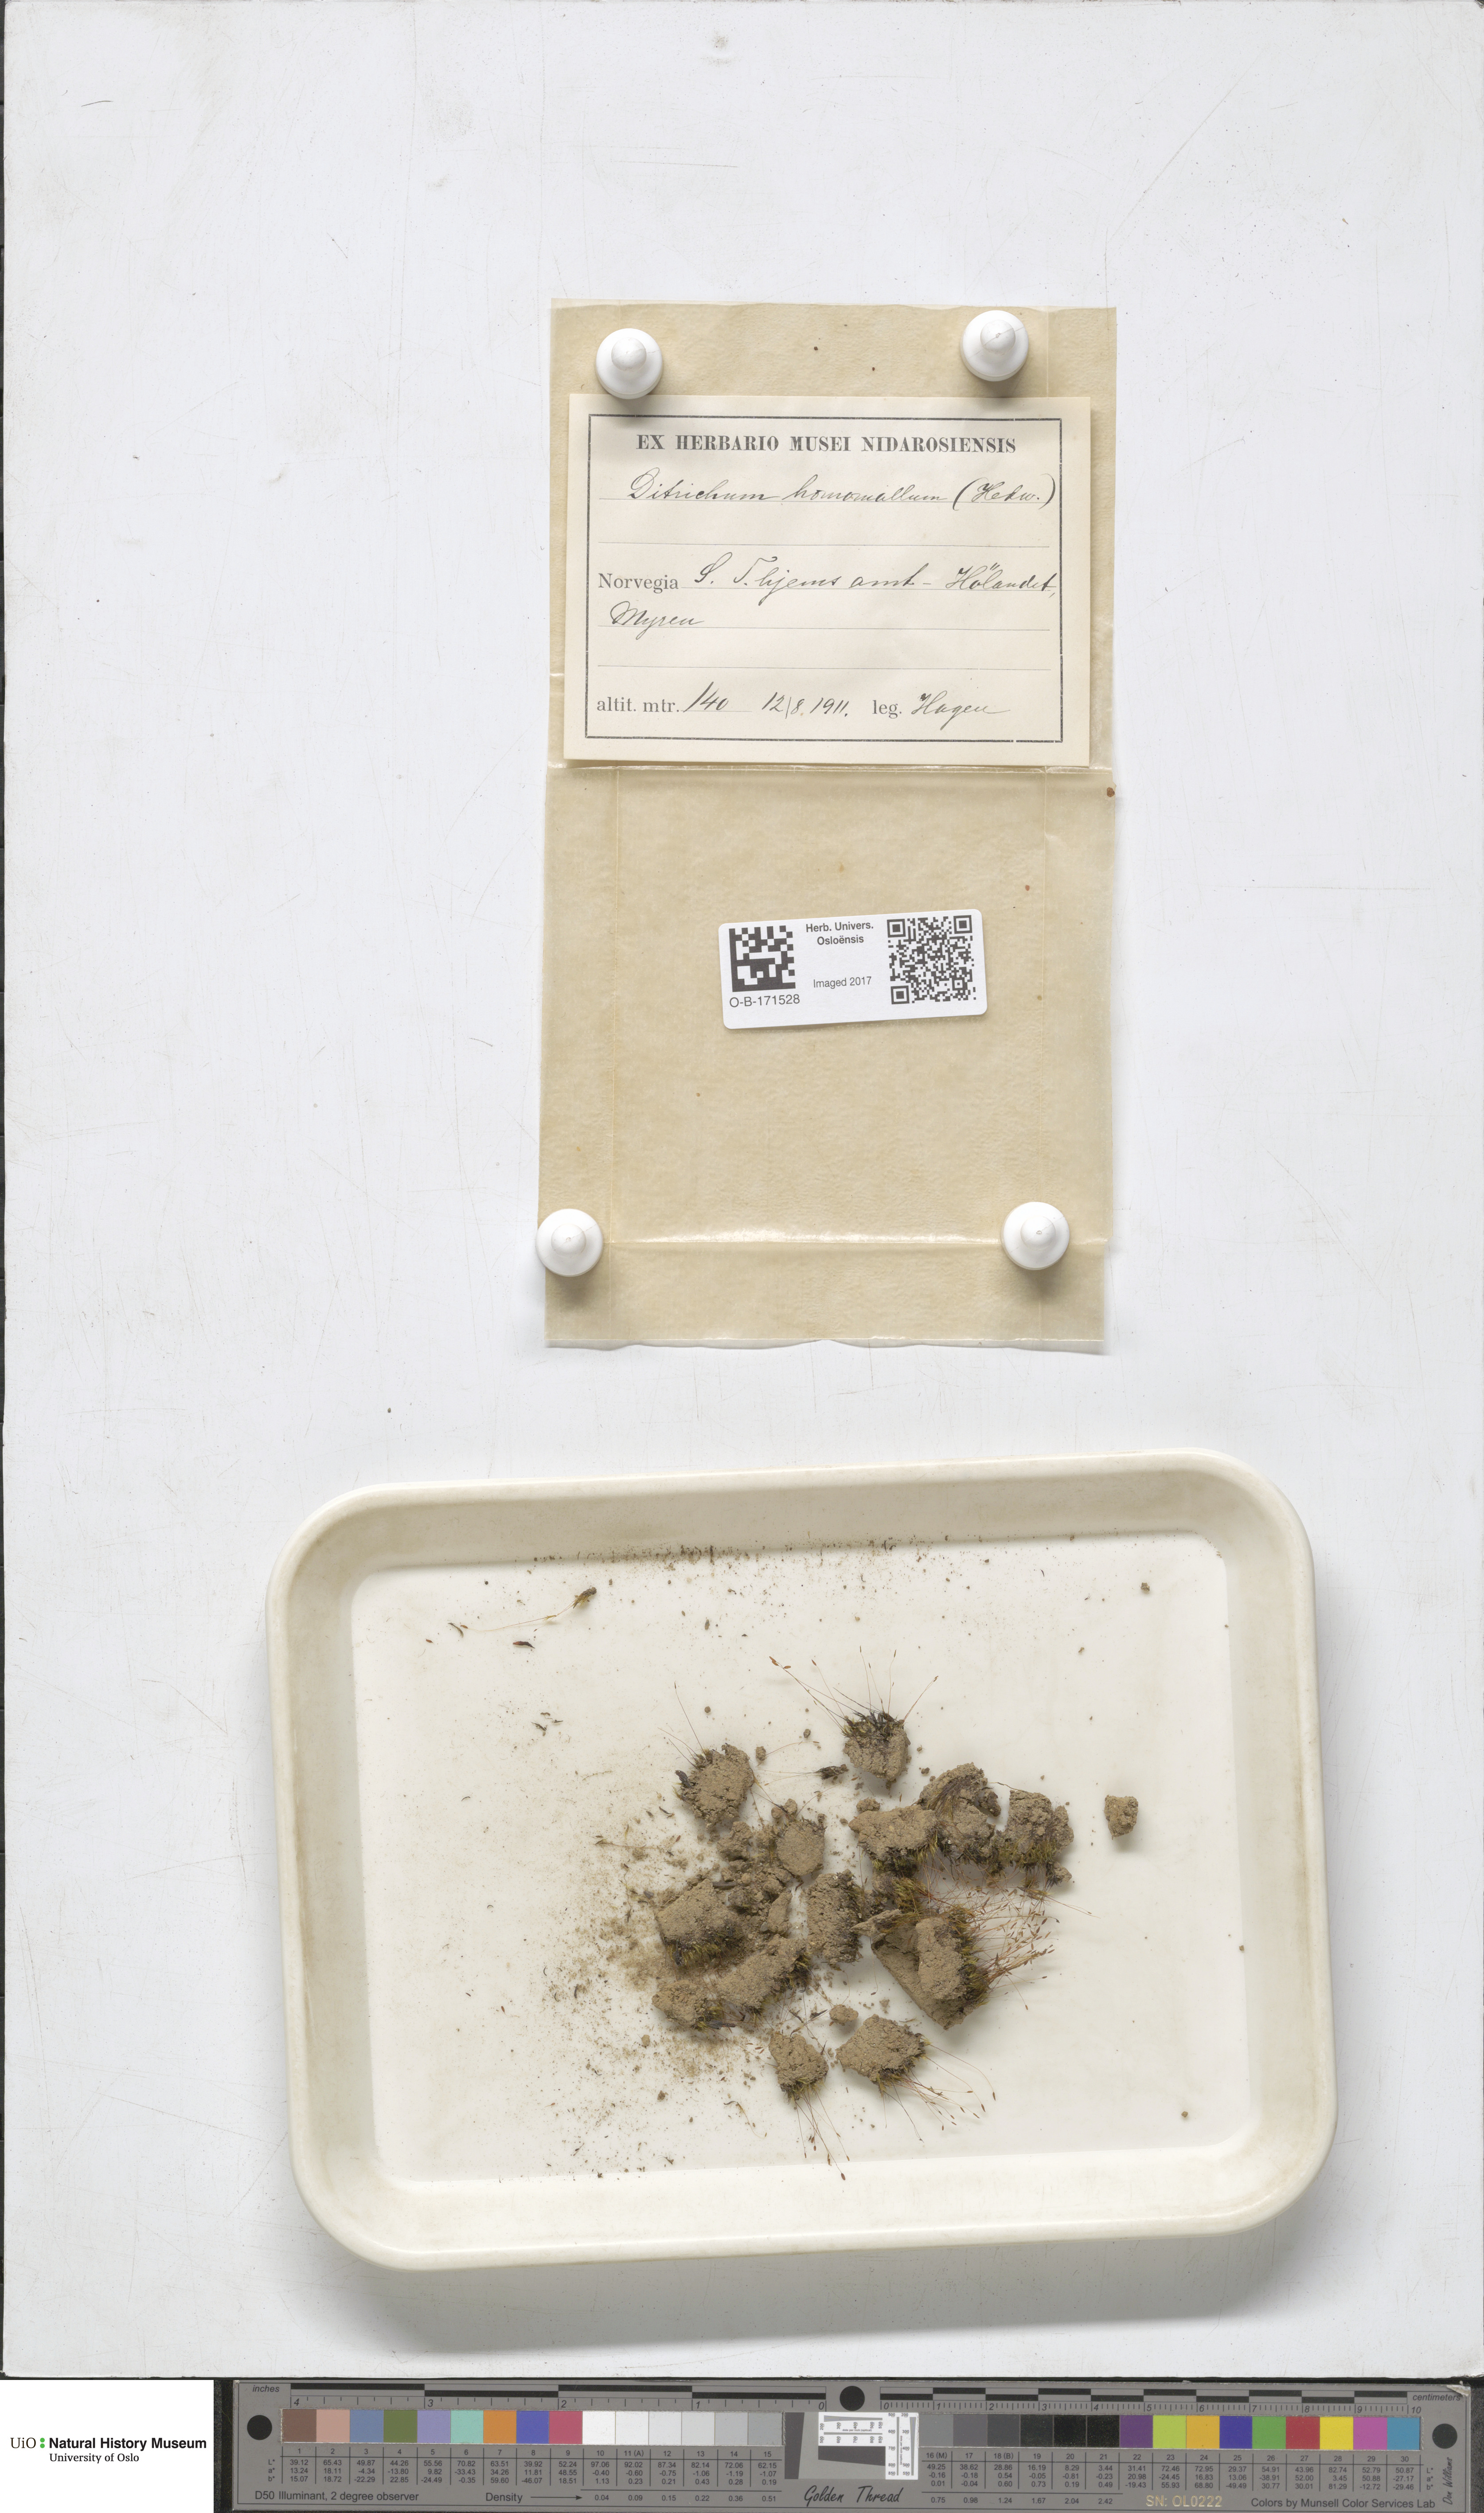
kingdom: Plantae
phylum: Bryophyta
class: Bryopsida
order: Dicranales
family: Ditrichaceae
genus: Ditrichum
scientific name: Ditrichum heteromallum
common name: Curve-leaved ditrichum
